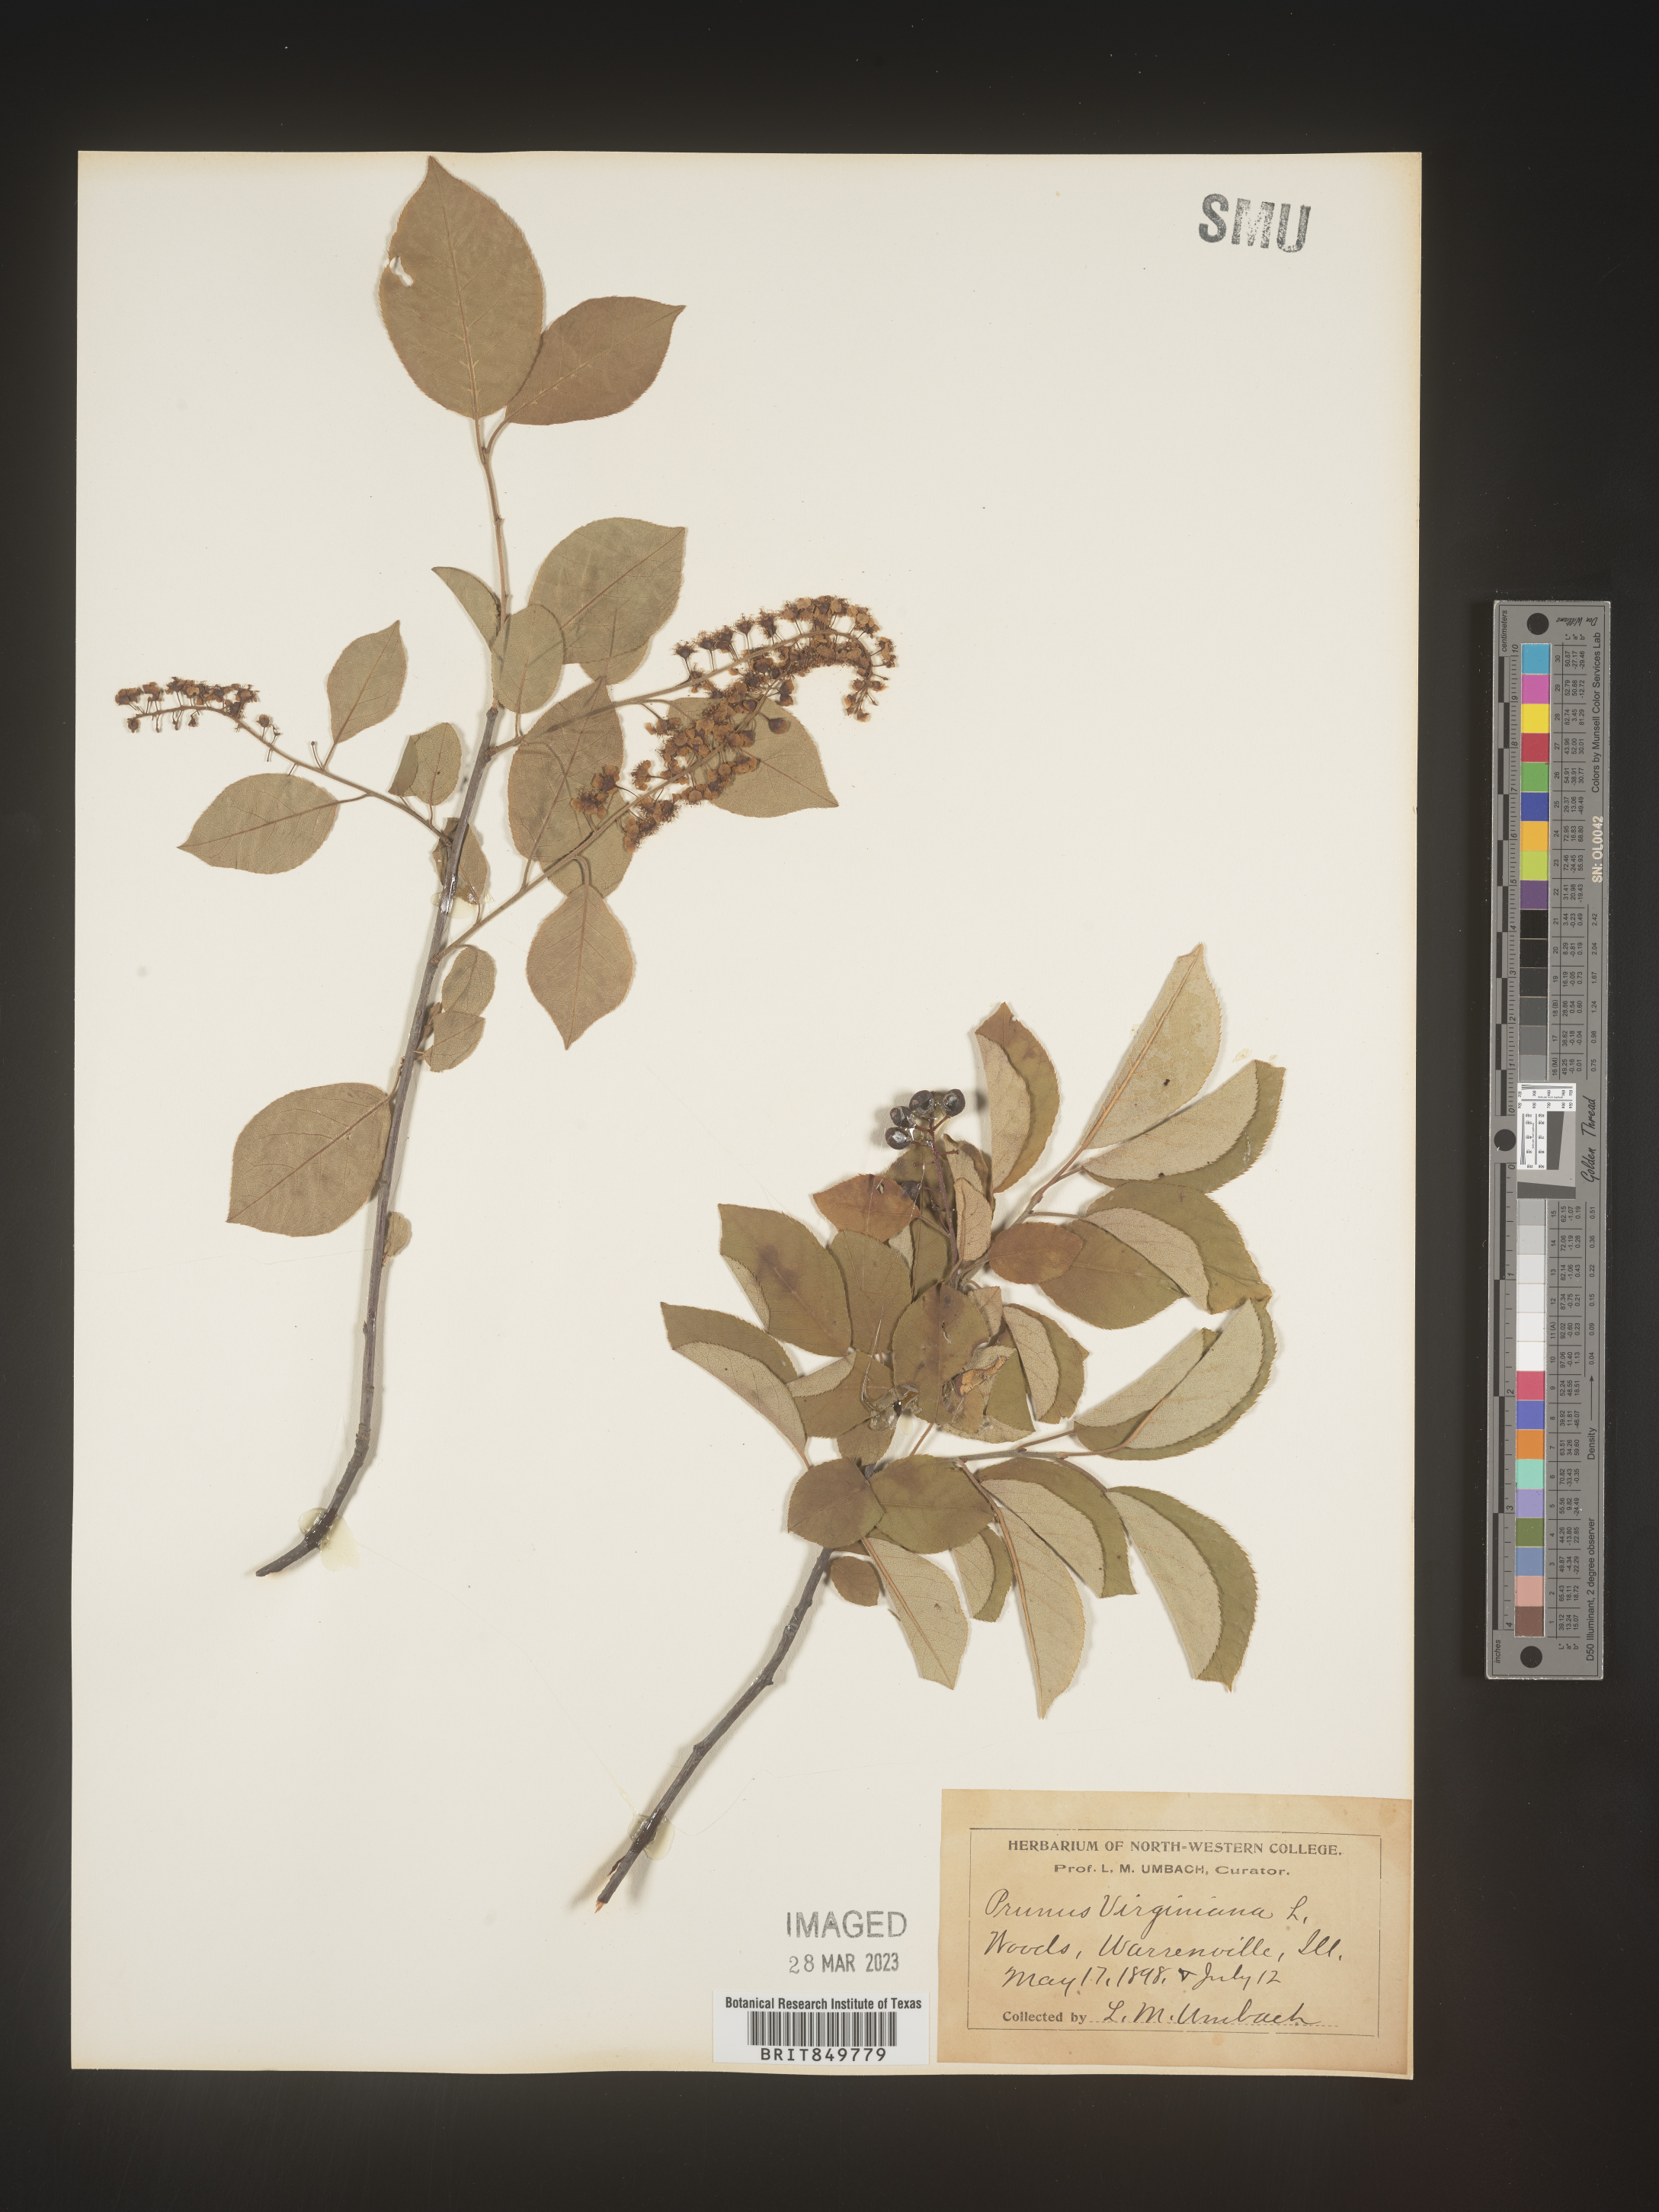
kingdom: Plantae
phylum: Tracheophyta
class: Magnoliopsida
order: Rosales
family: Rosaceae
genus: Prunus
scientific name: Prunus virginiana
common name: Chokecherry
